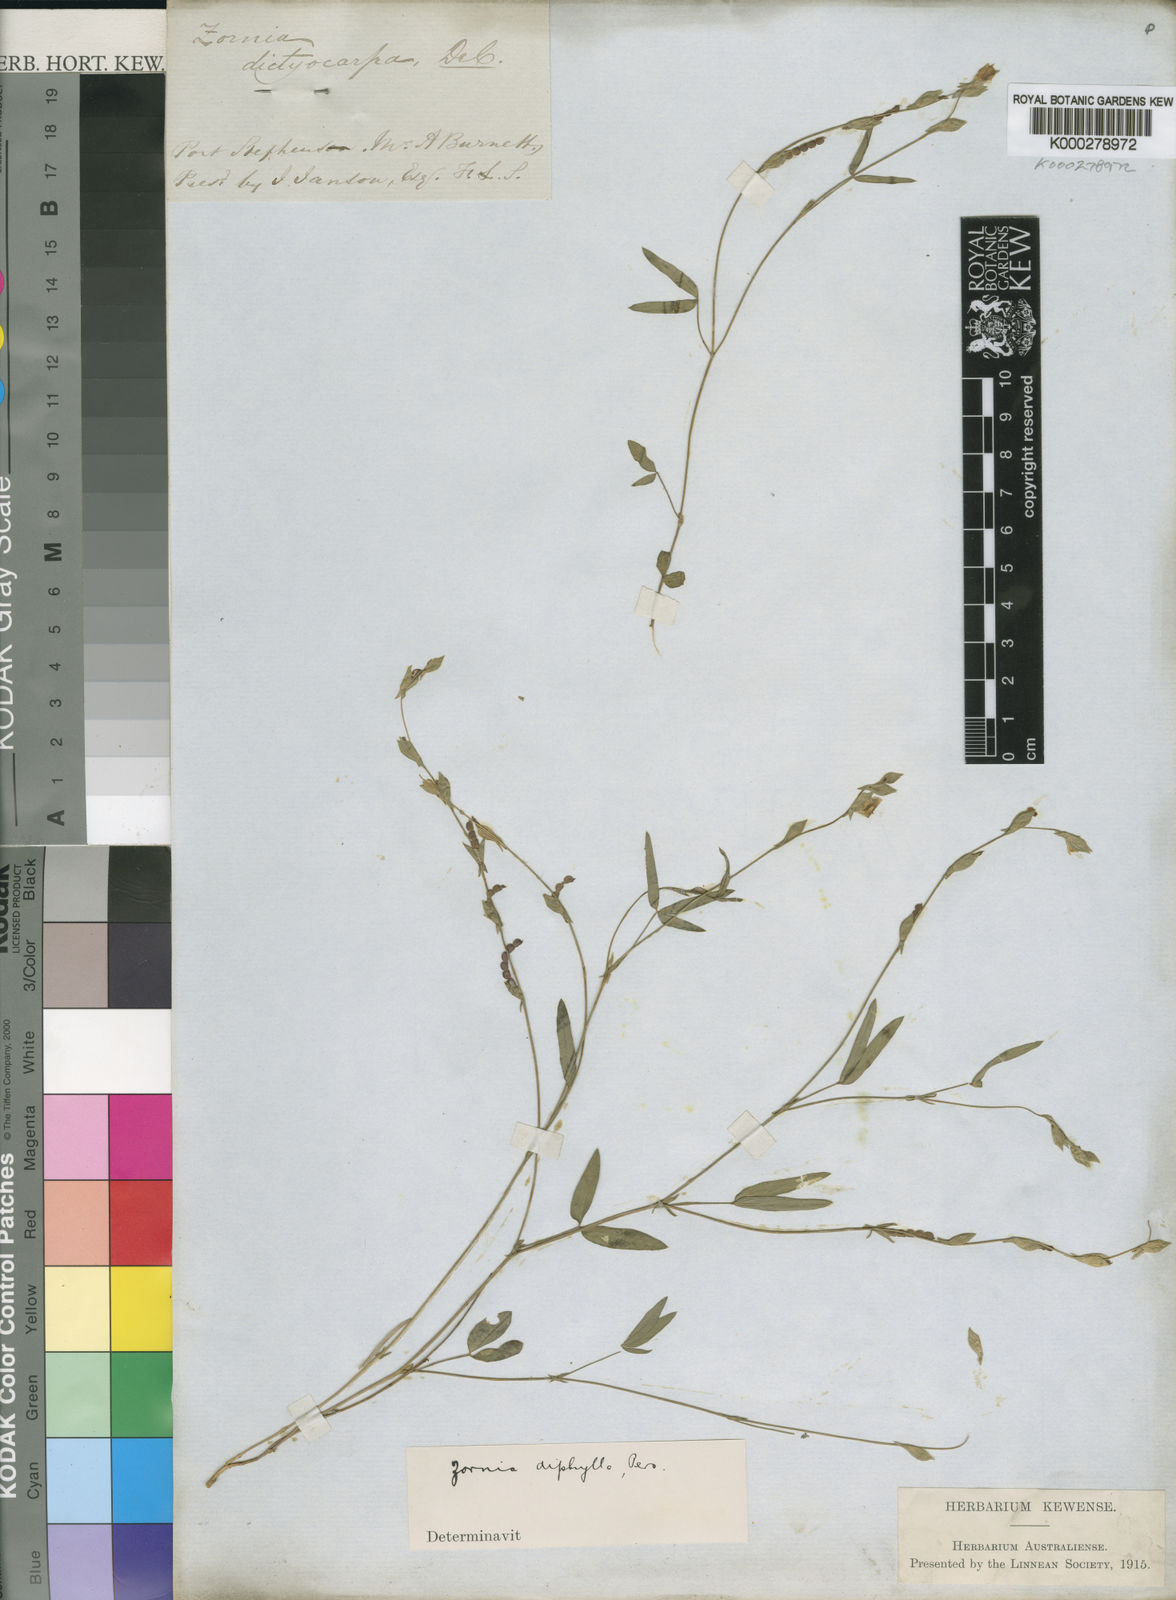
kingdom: Plantae
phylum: Tracheophyta
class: Magnoliopsida
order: Fabales
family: Fabaceae
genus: Zornia
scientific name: Zornia diphylla
